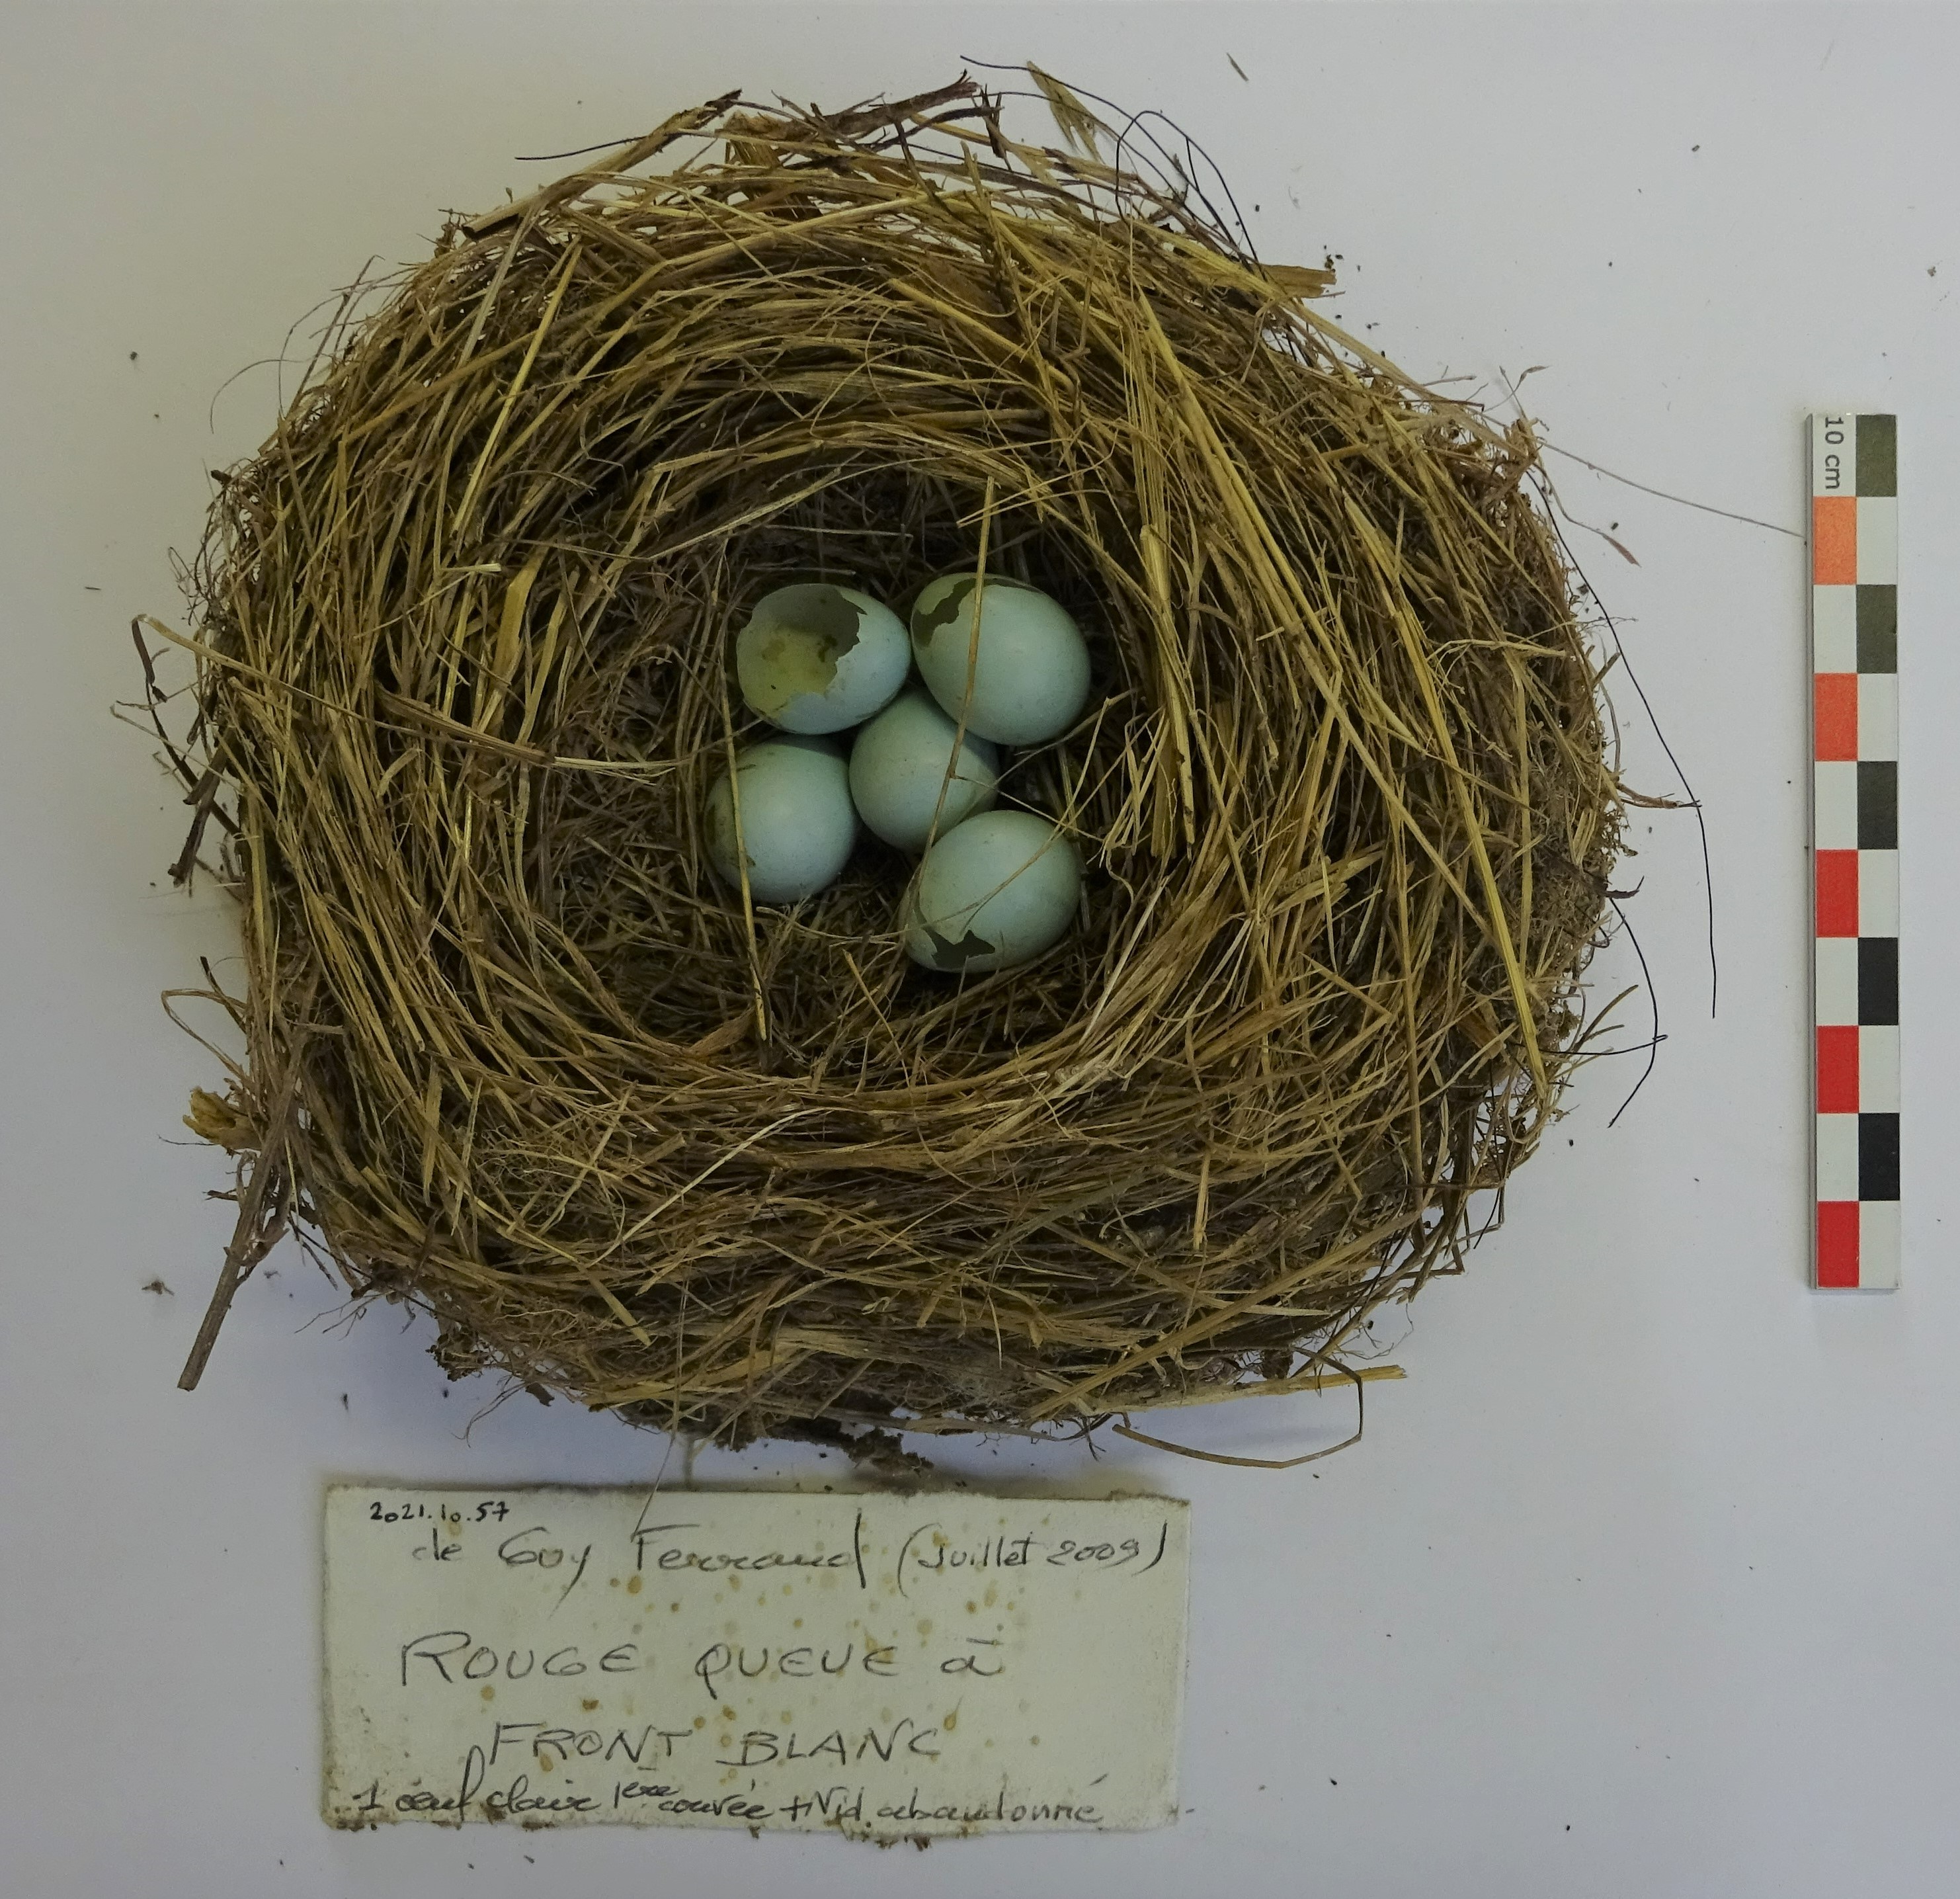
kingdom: Animalia
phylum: Chordata
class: Aves
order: Passeriformes
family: Muscicapidae
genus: Phoenicurus
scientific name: Phoenicurus phoenicurus
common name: Common redstart
